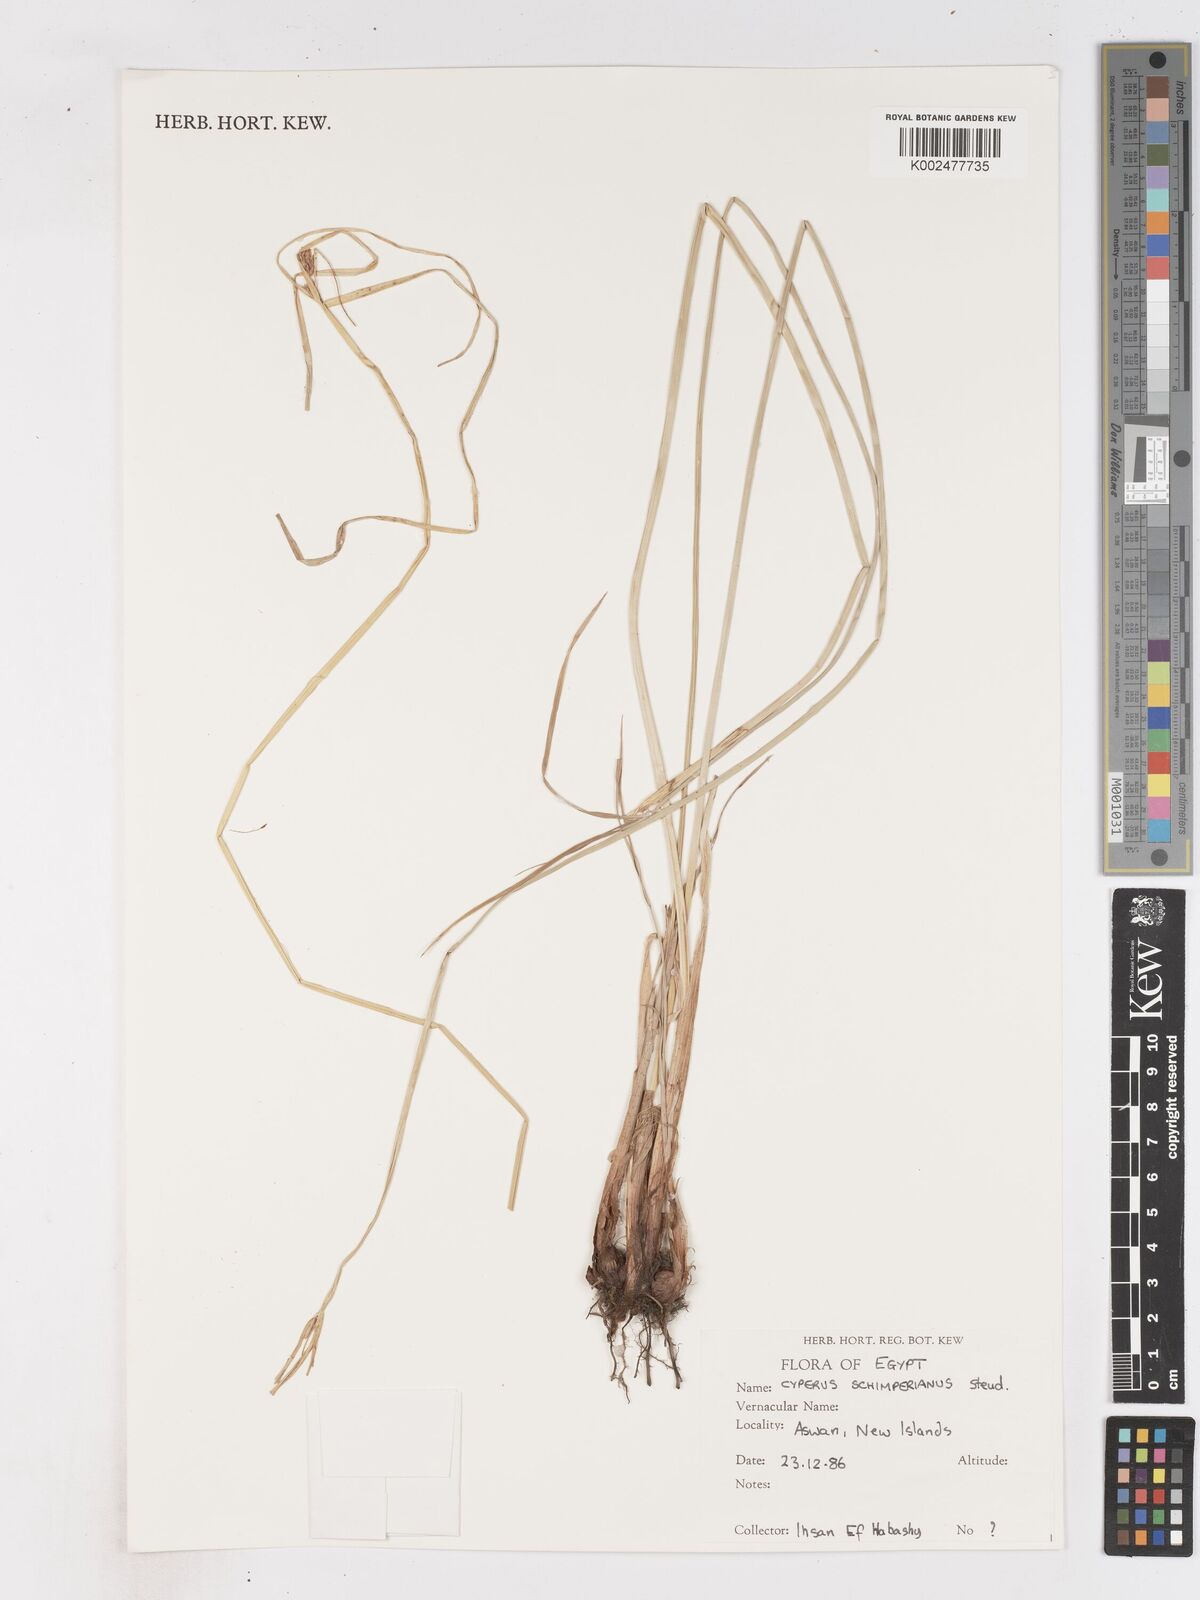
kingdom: Plantae
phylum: Tracheophyta
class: Liliopsida
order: Poales
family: Cyperaceae
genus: Cyperus
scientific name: Cyperus schimperianus
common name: Schimper flatsedge
